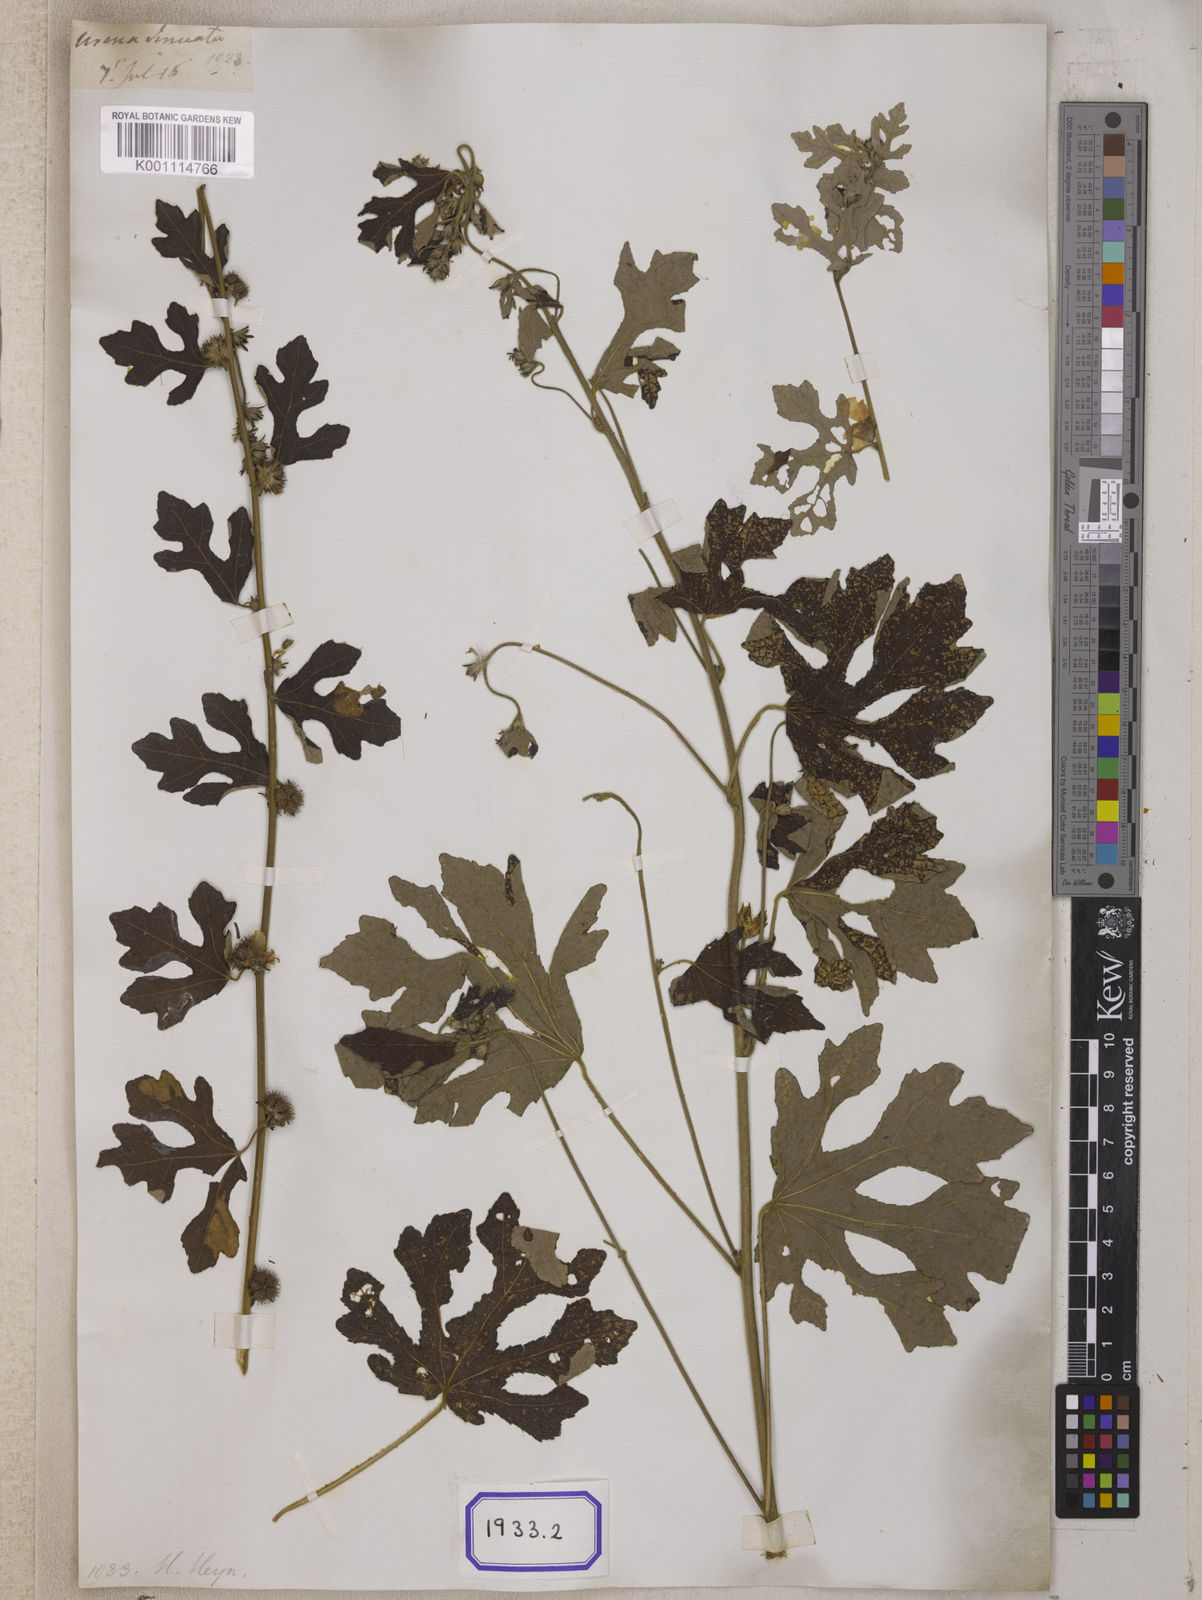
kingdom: Plantae
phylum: Tracheophyta
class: Magnoliopsida
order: Malvales
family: Malvaceae
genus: Urena
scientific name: Urena procumbens
